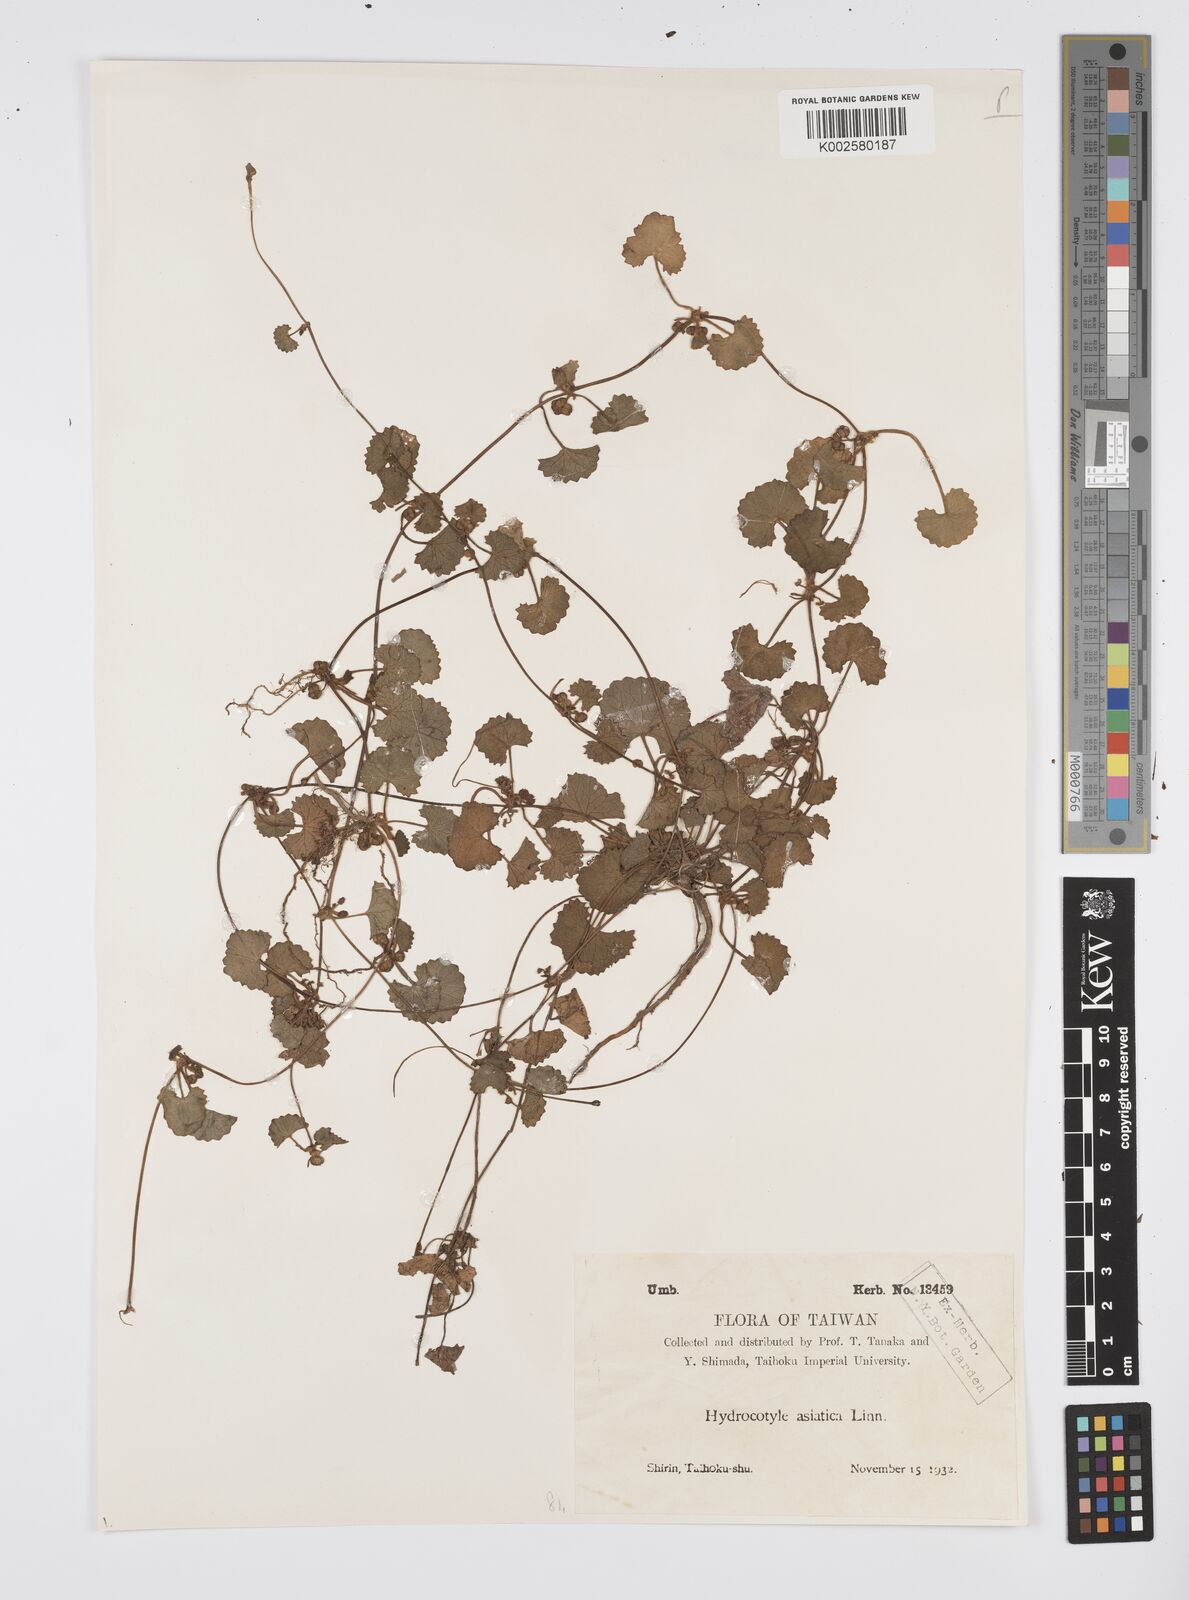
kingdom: Plantae
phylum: Tracheophyta
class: Magnoliopsida
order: Apiales
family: Apiaceae
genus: Centella
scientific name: Centella
